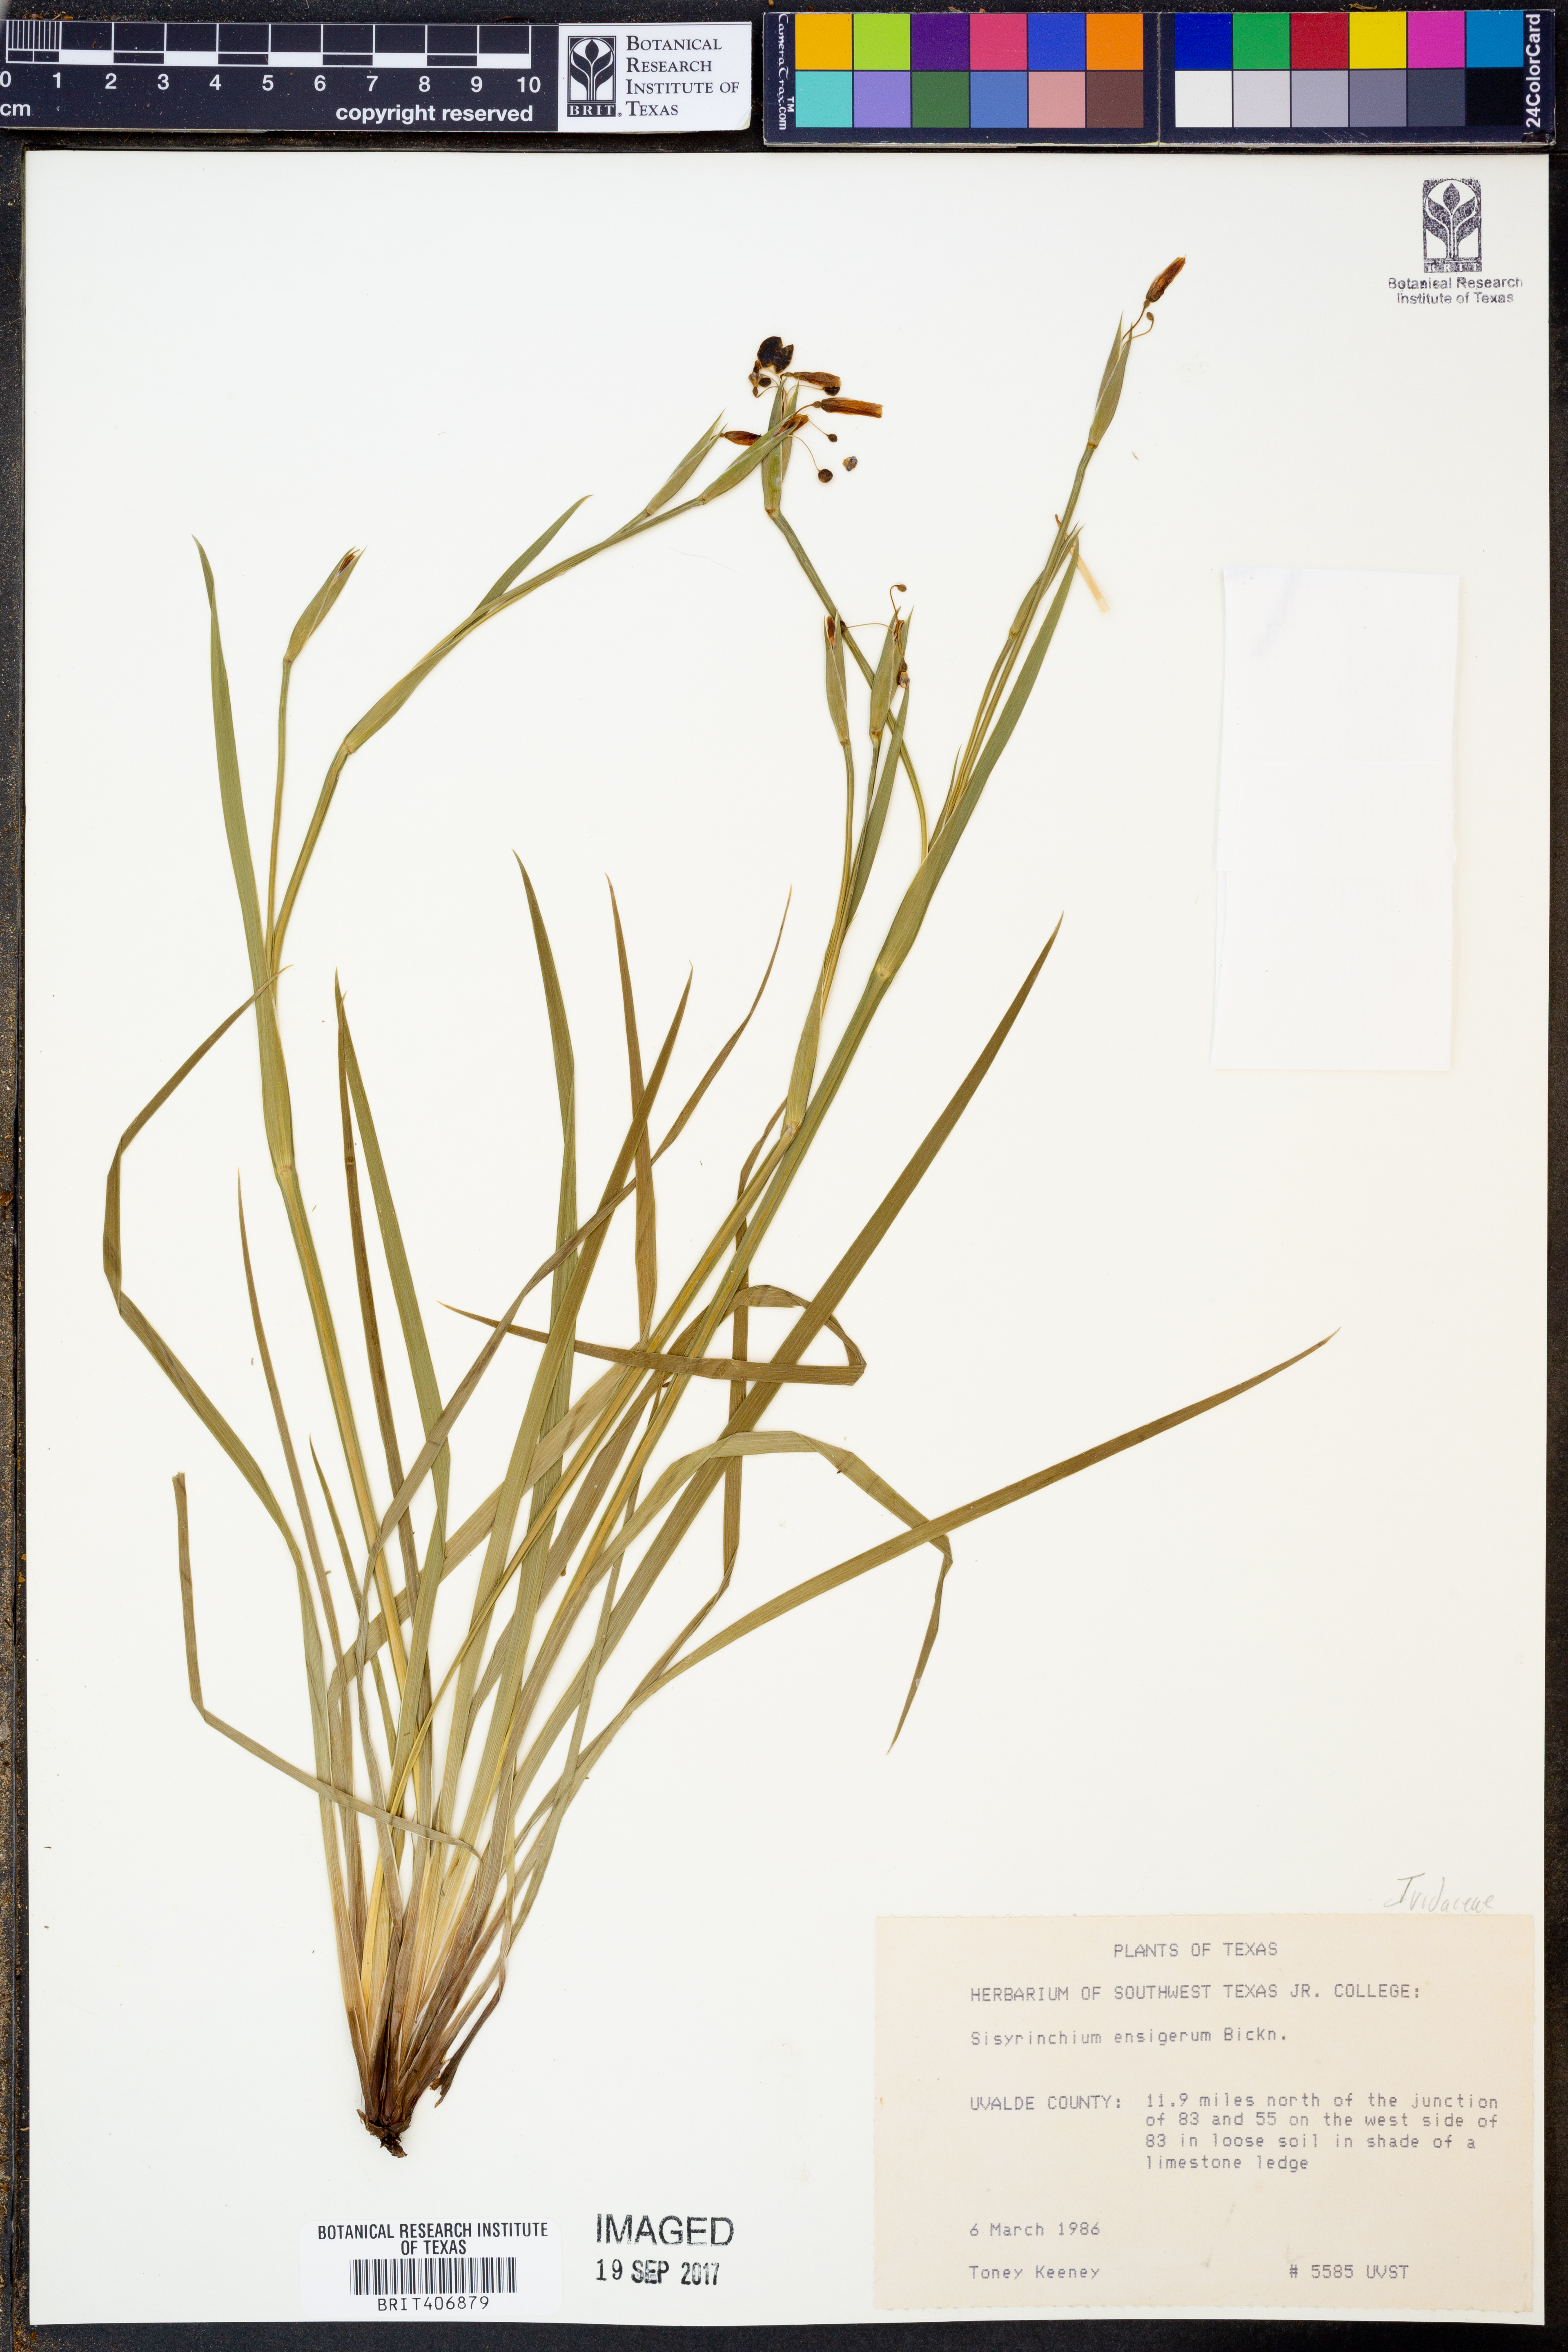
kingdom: Plantae
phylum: Tracheophyta
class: Liliopsida
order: Asparagales
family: Iridaceae
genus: Sisyrinchium
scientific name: Sisyrinchium ensigerum
